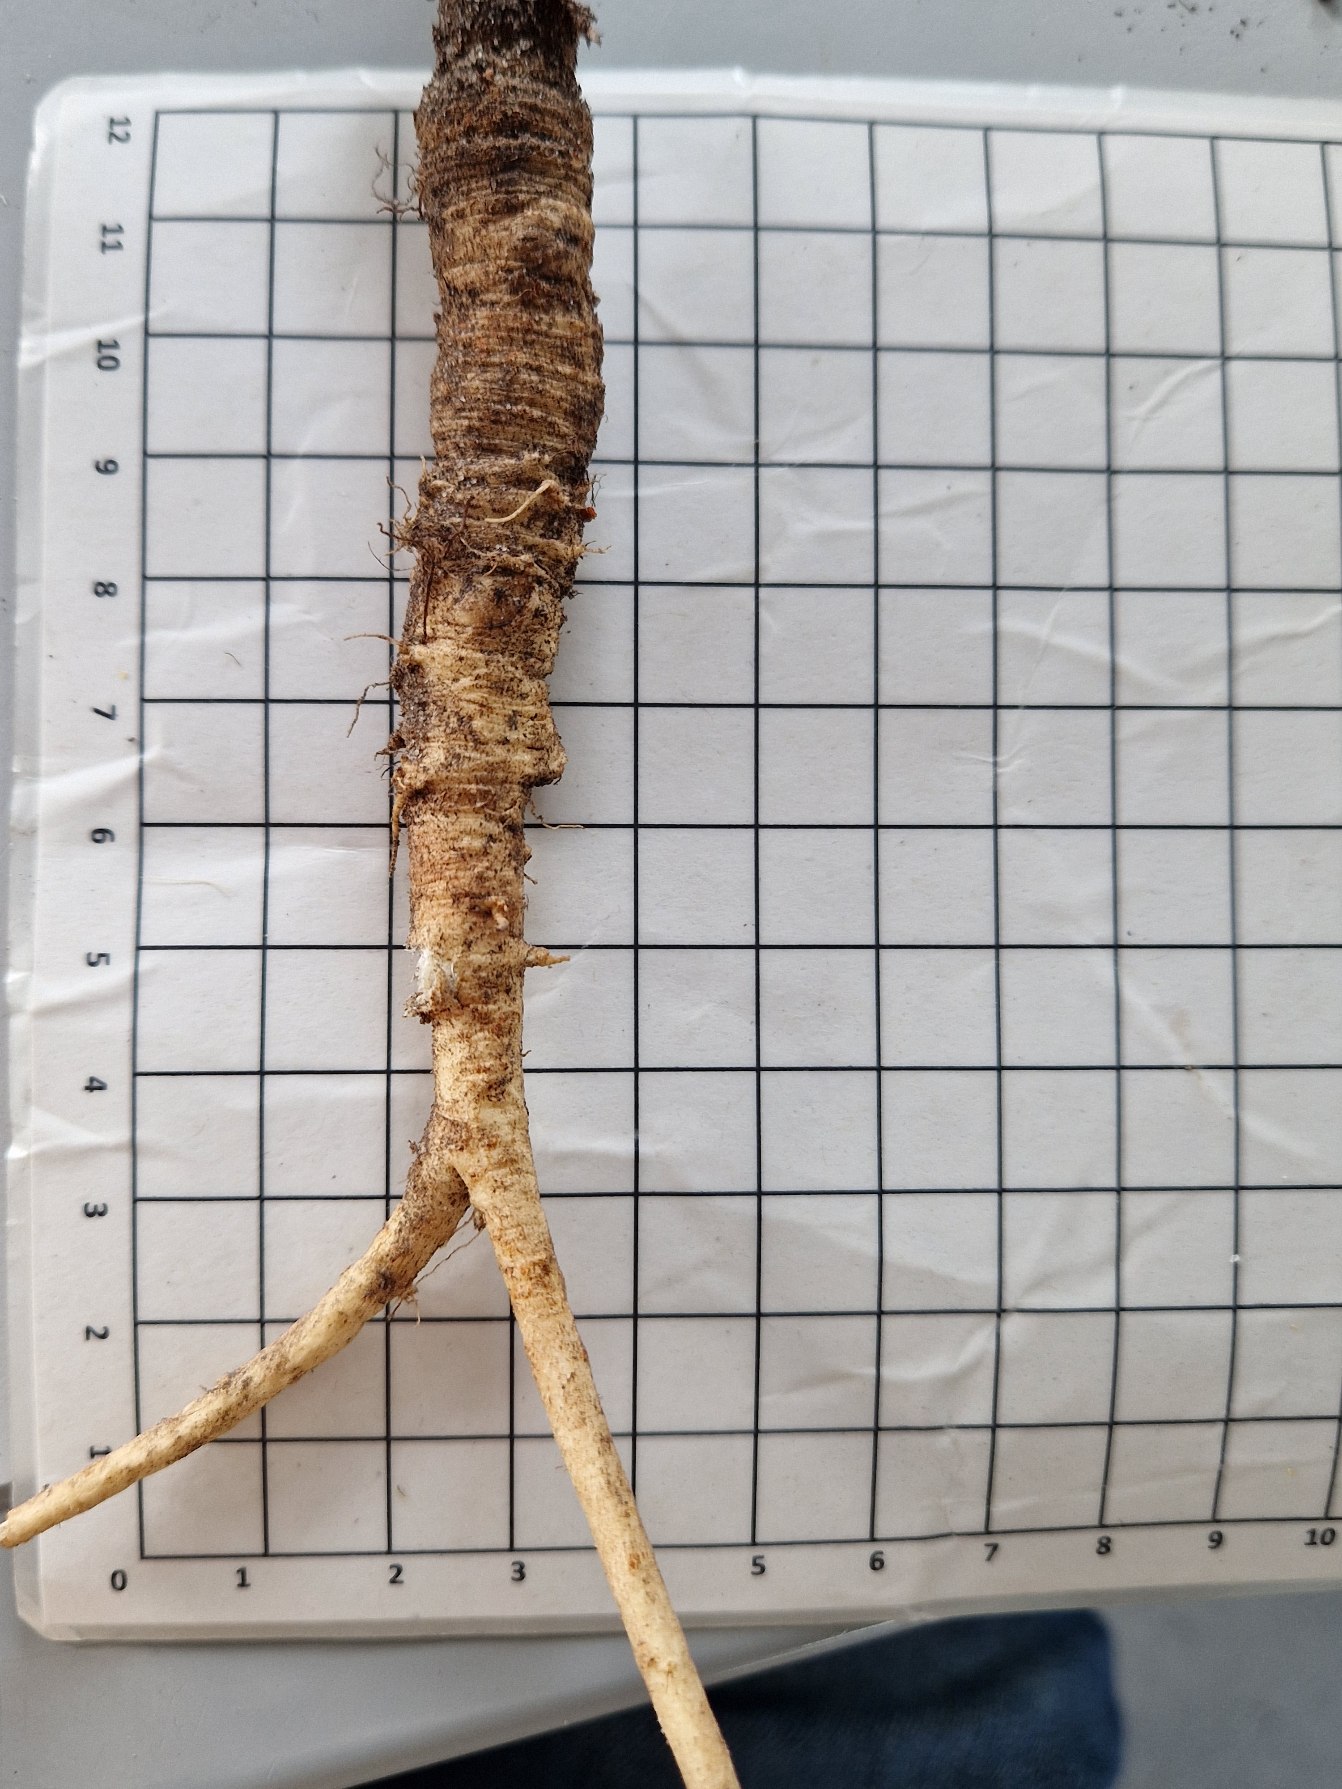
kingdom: Plantae
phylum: Tracheophyta
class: Magnoliopsida
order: Apiales
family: Apiaceae
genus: Pastinaca
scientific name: Pastinaca sativa
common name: Pastinak
